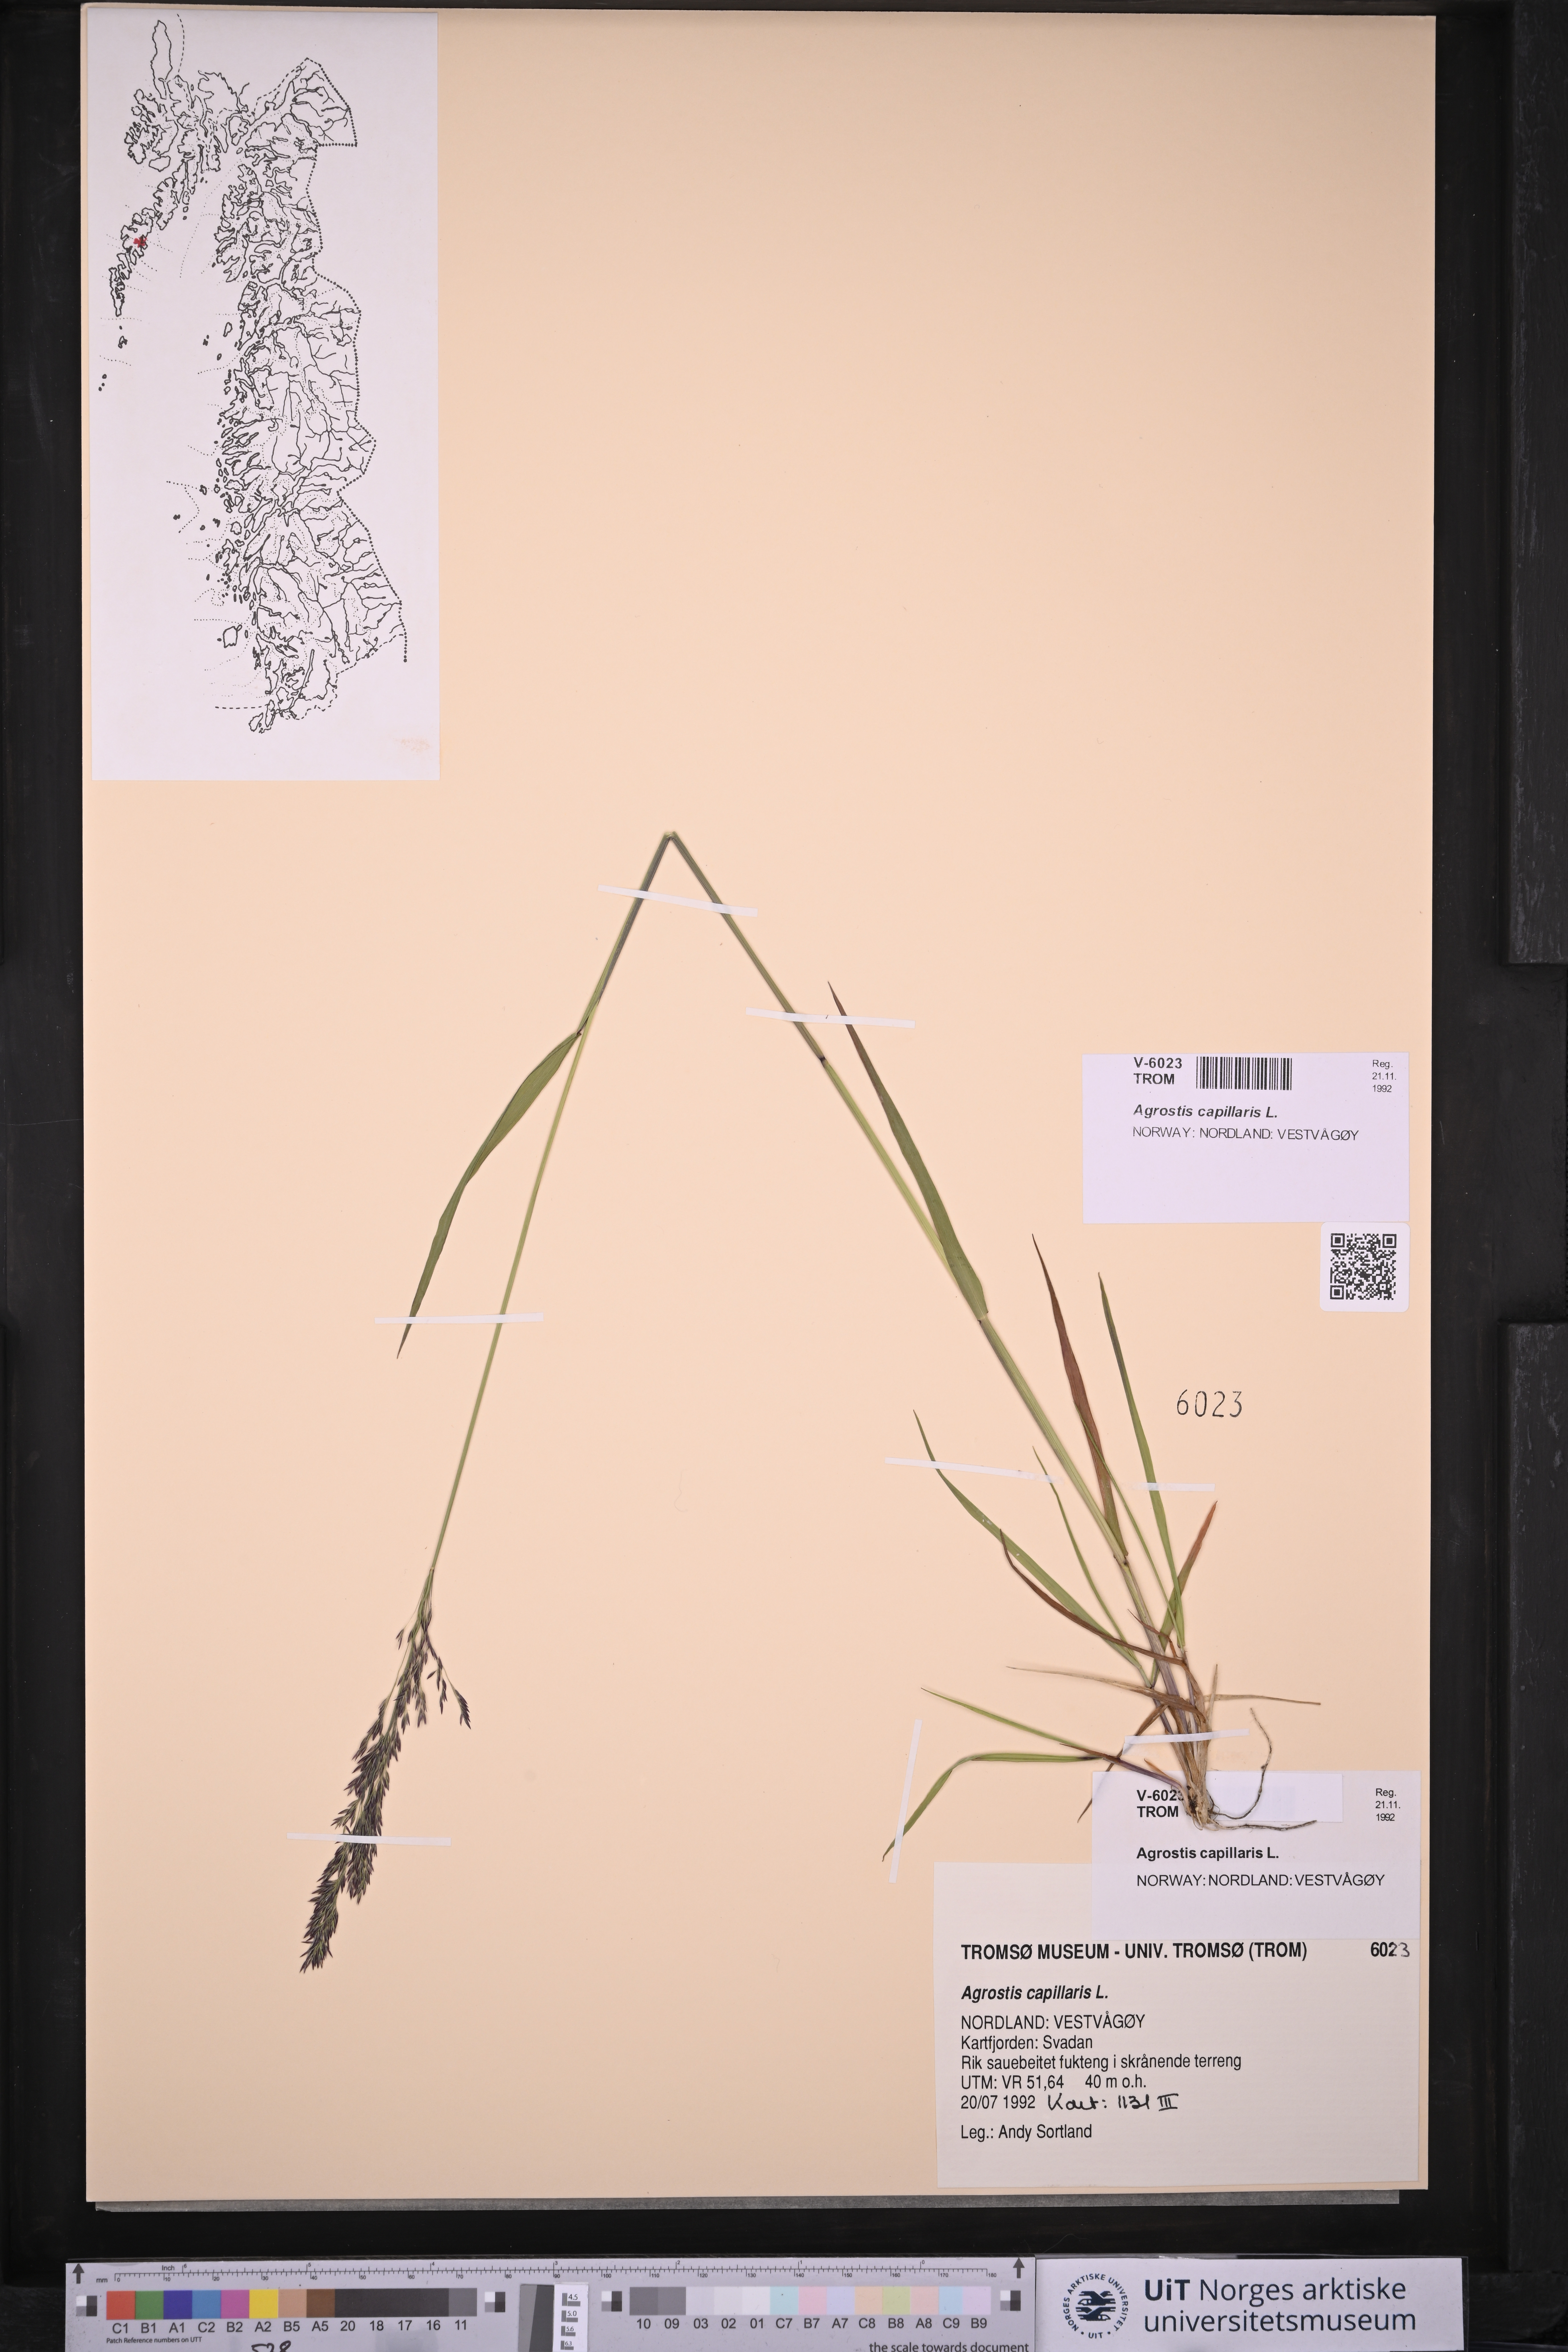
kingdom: Plantae
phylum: Tracheophyta
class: Liliopsida
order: Poales
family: Poaceae
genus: Agrostis
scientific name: Agrostis capillaris
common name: Colonial bentgrass
